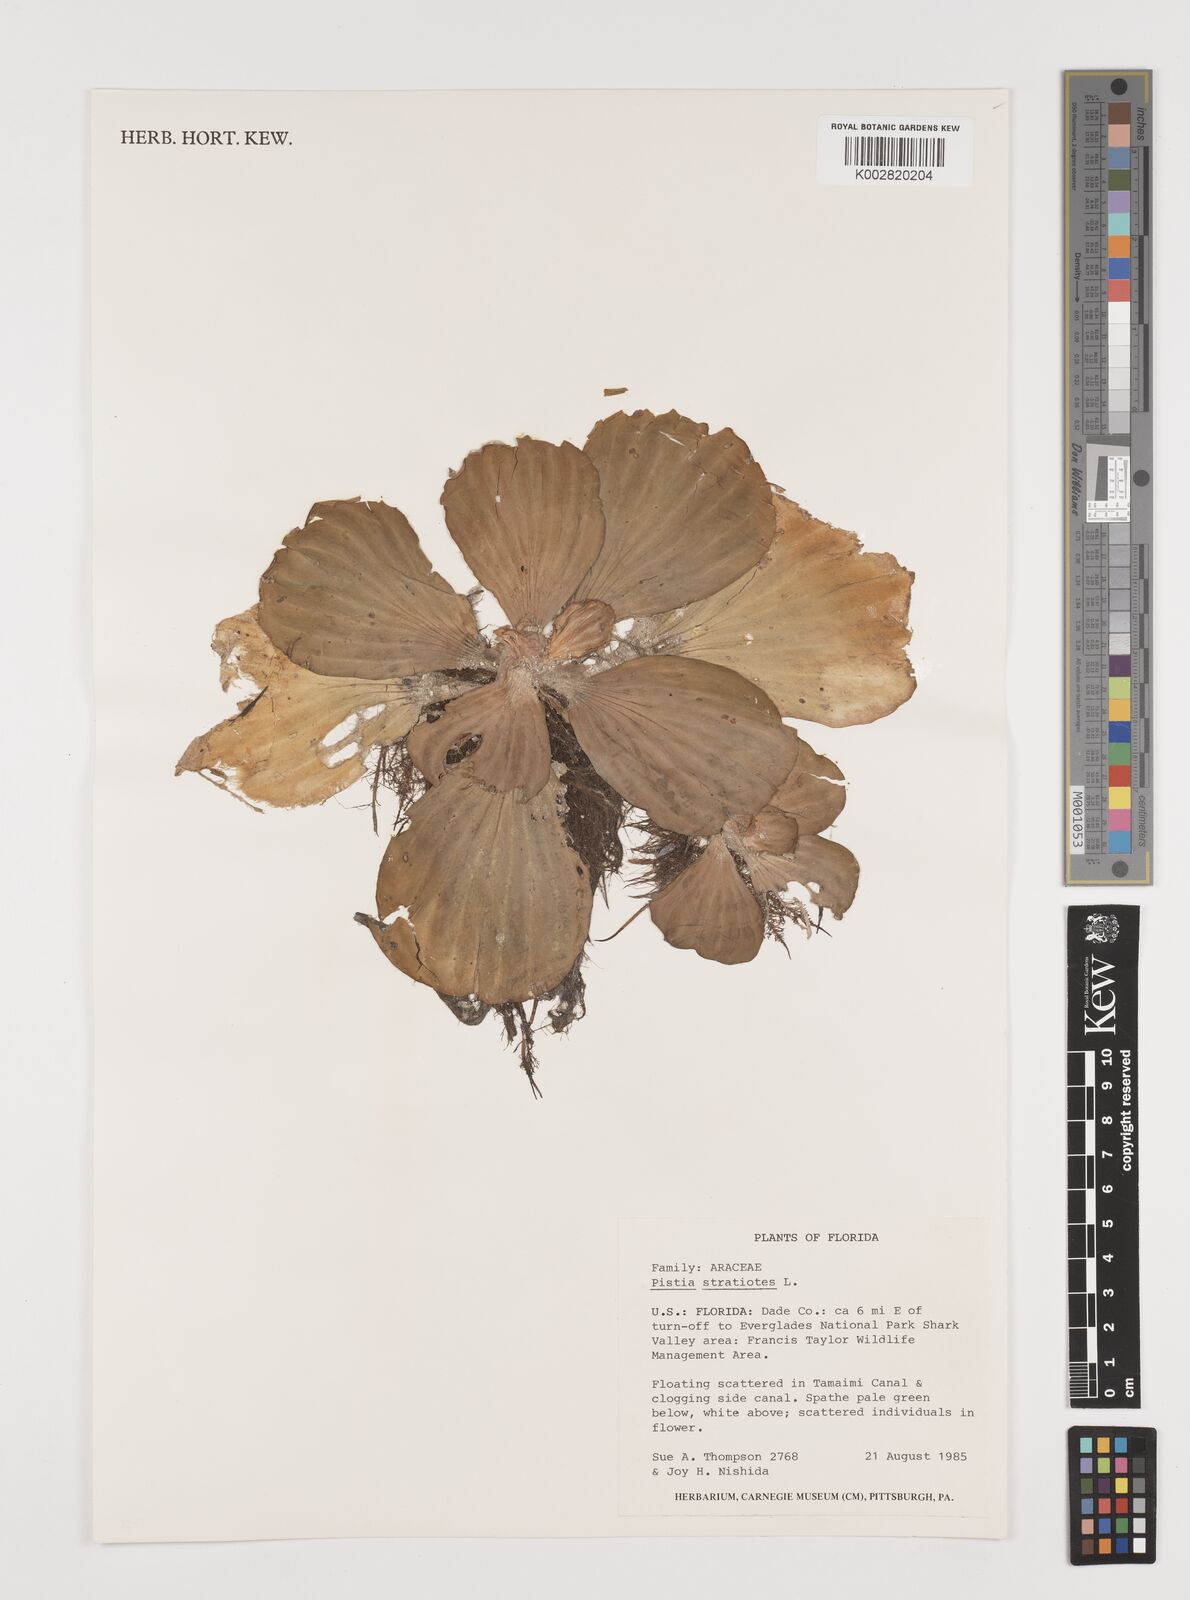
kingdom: Plantae
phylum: Tracheophyta
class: Liliopsida
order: Alismatales
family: Araceae
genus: Pistia
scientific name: Pistia stratiotes
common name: Water lettuce
